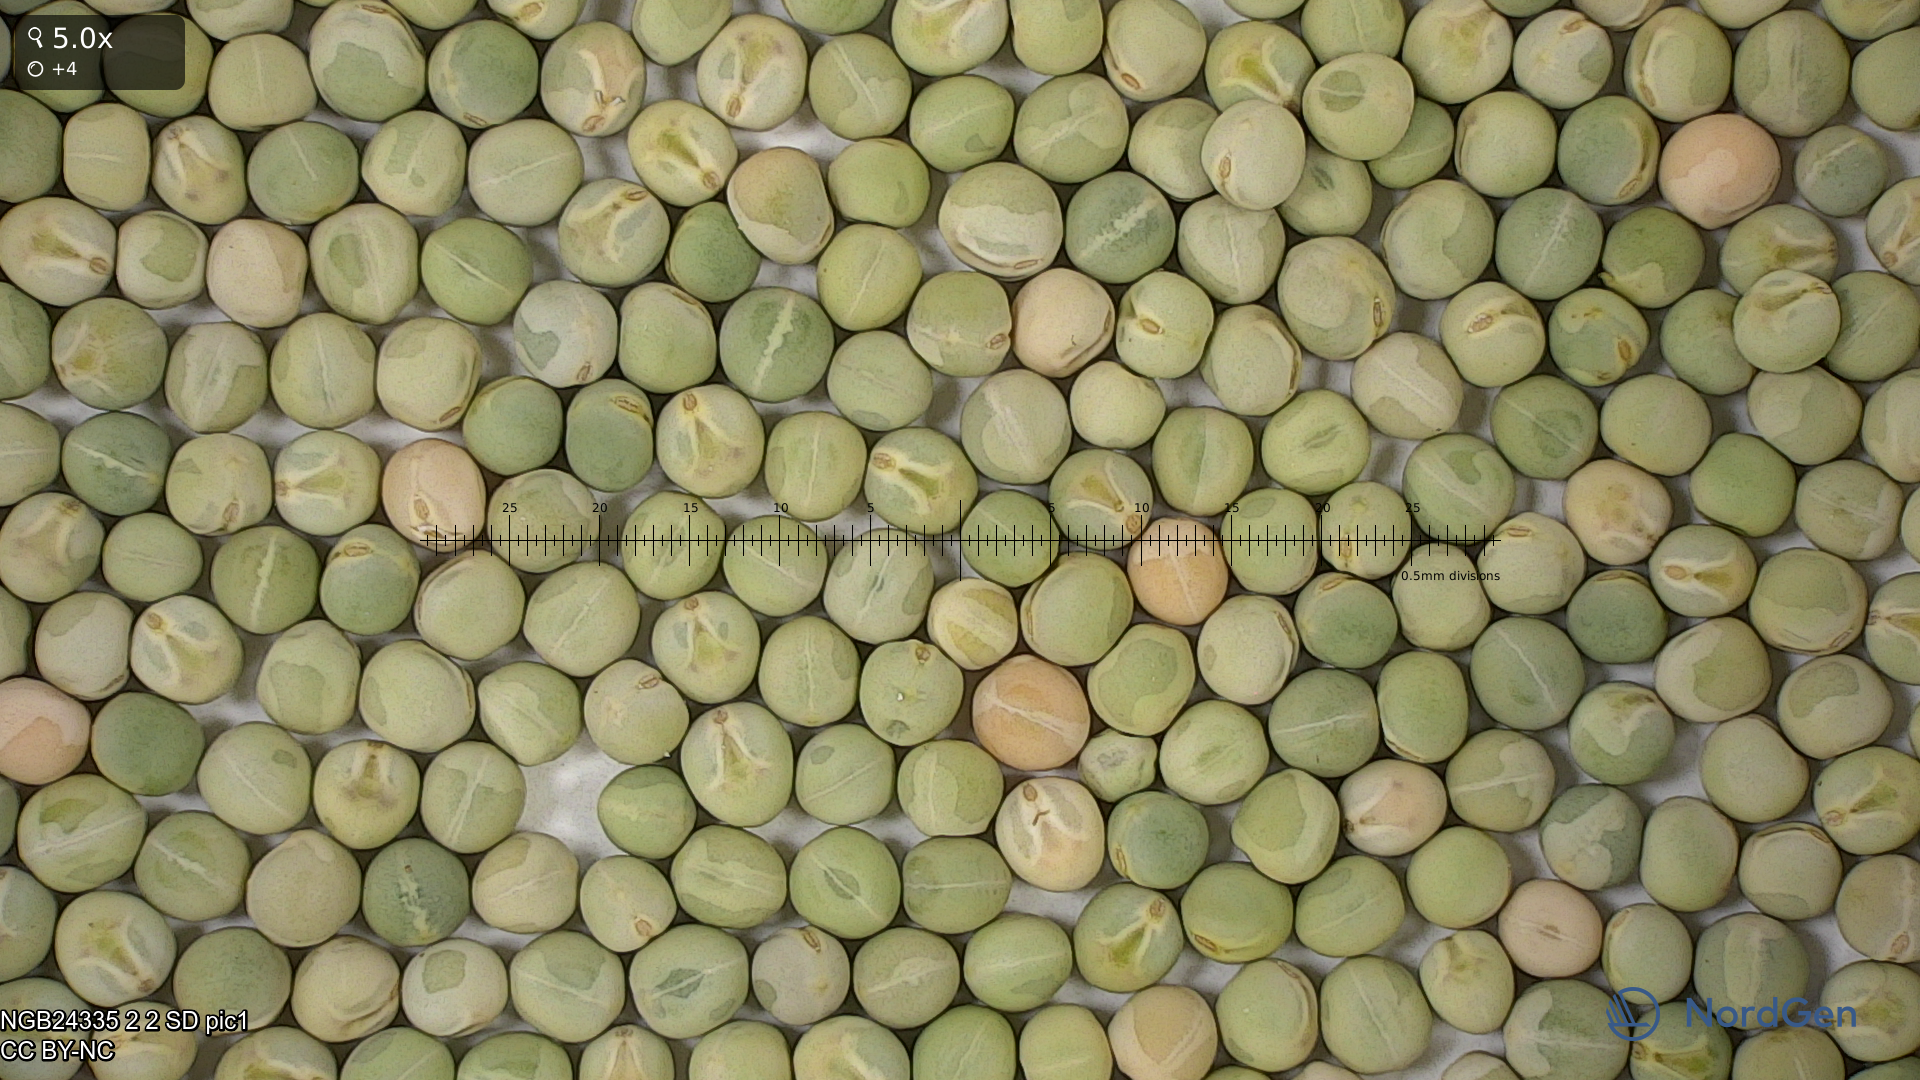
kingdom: Plantae
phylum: Tracheophyta
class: Magnoliopsida
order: Fabales
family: Fabaceae
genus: Lathyrus
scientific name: Lathyrus oleraceus
